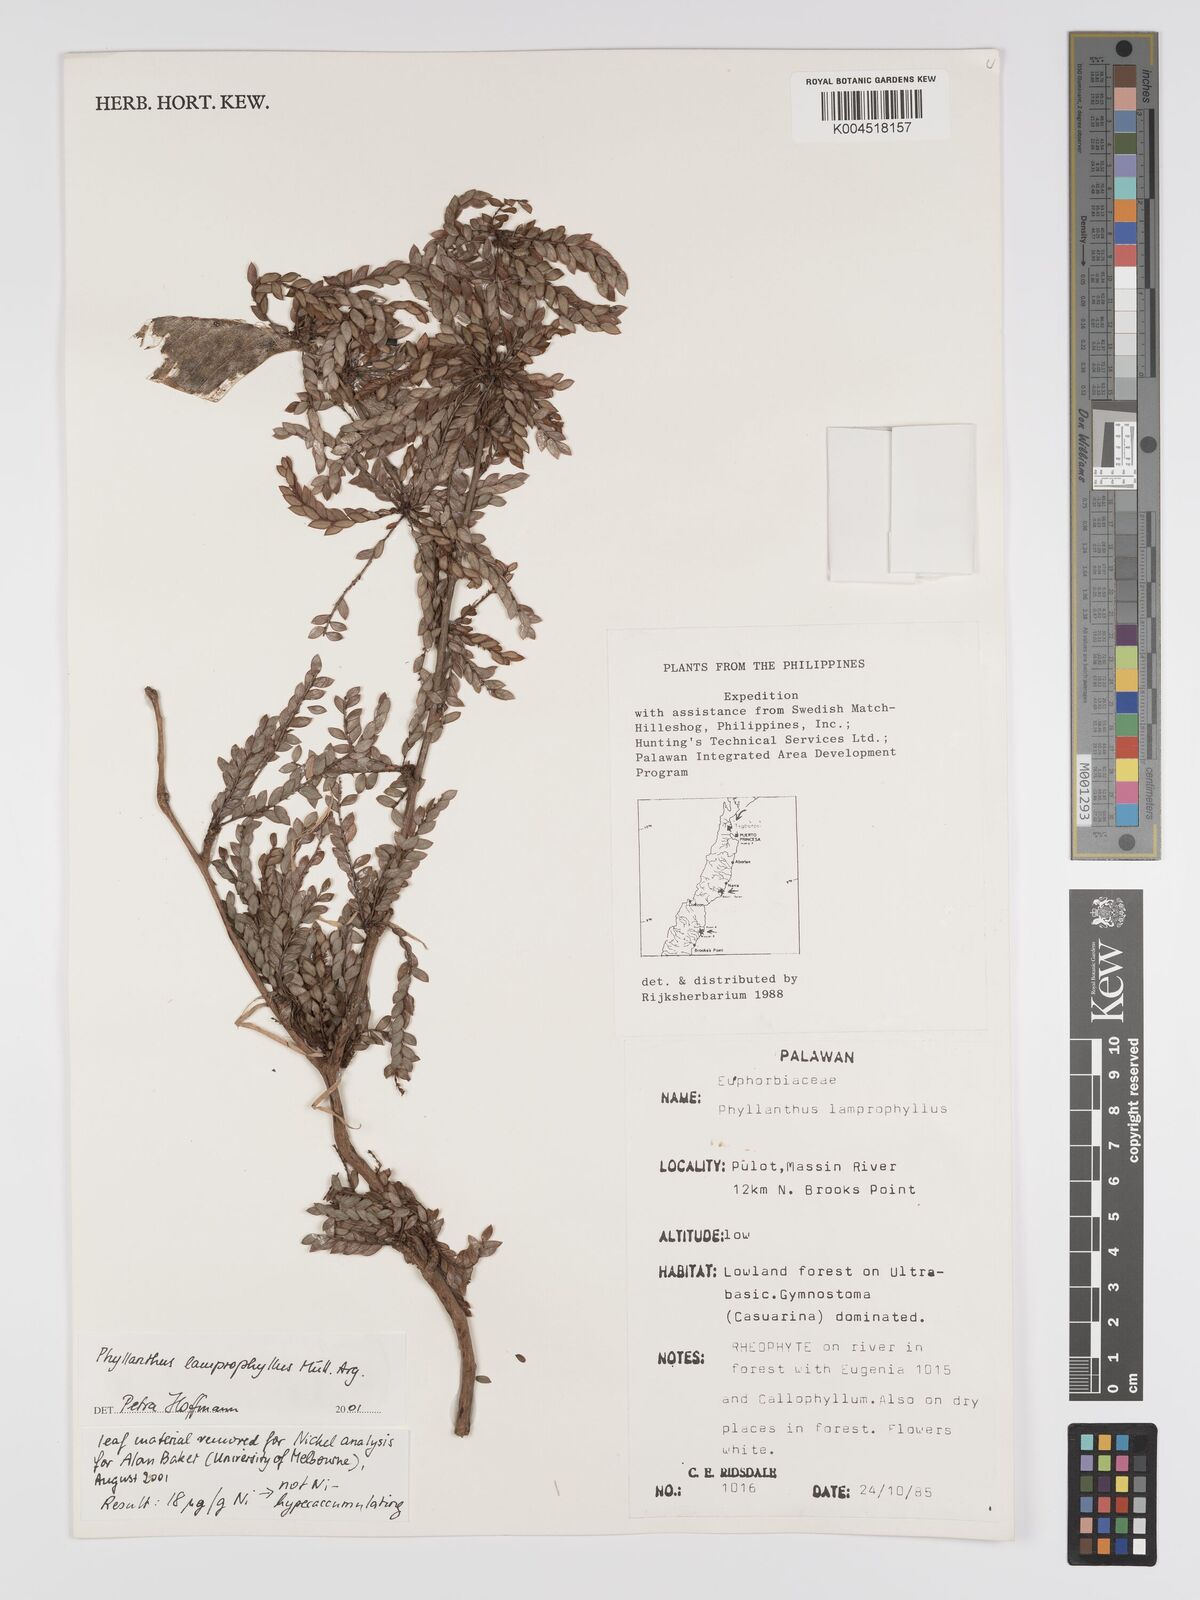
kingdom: Plantae
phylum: Tracheophyta
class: Magnoliopsida
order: Malpighiales
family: Phyllanthaceae
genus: Glochidion
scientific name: Glochidion lamprophyllum
